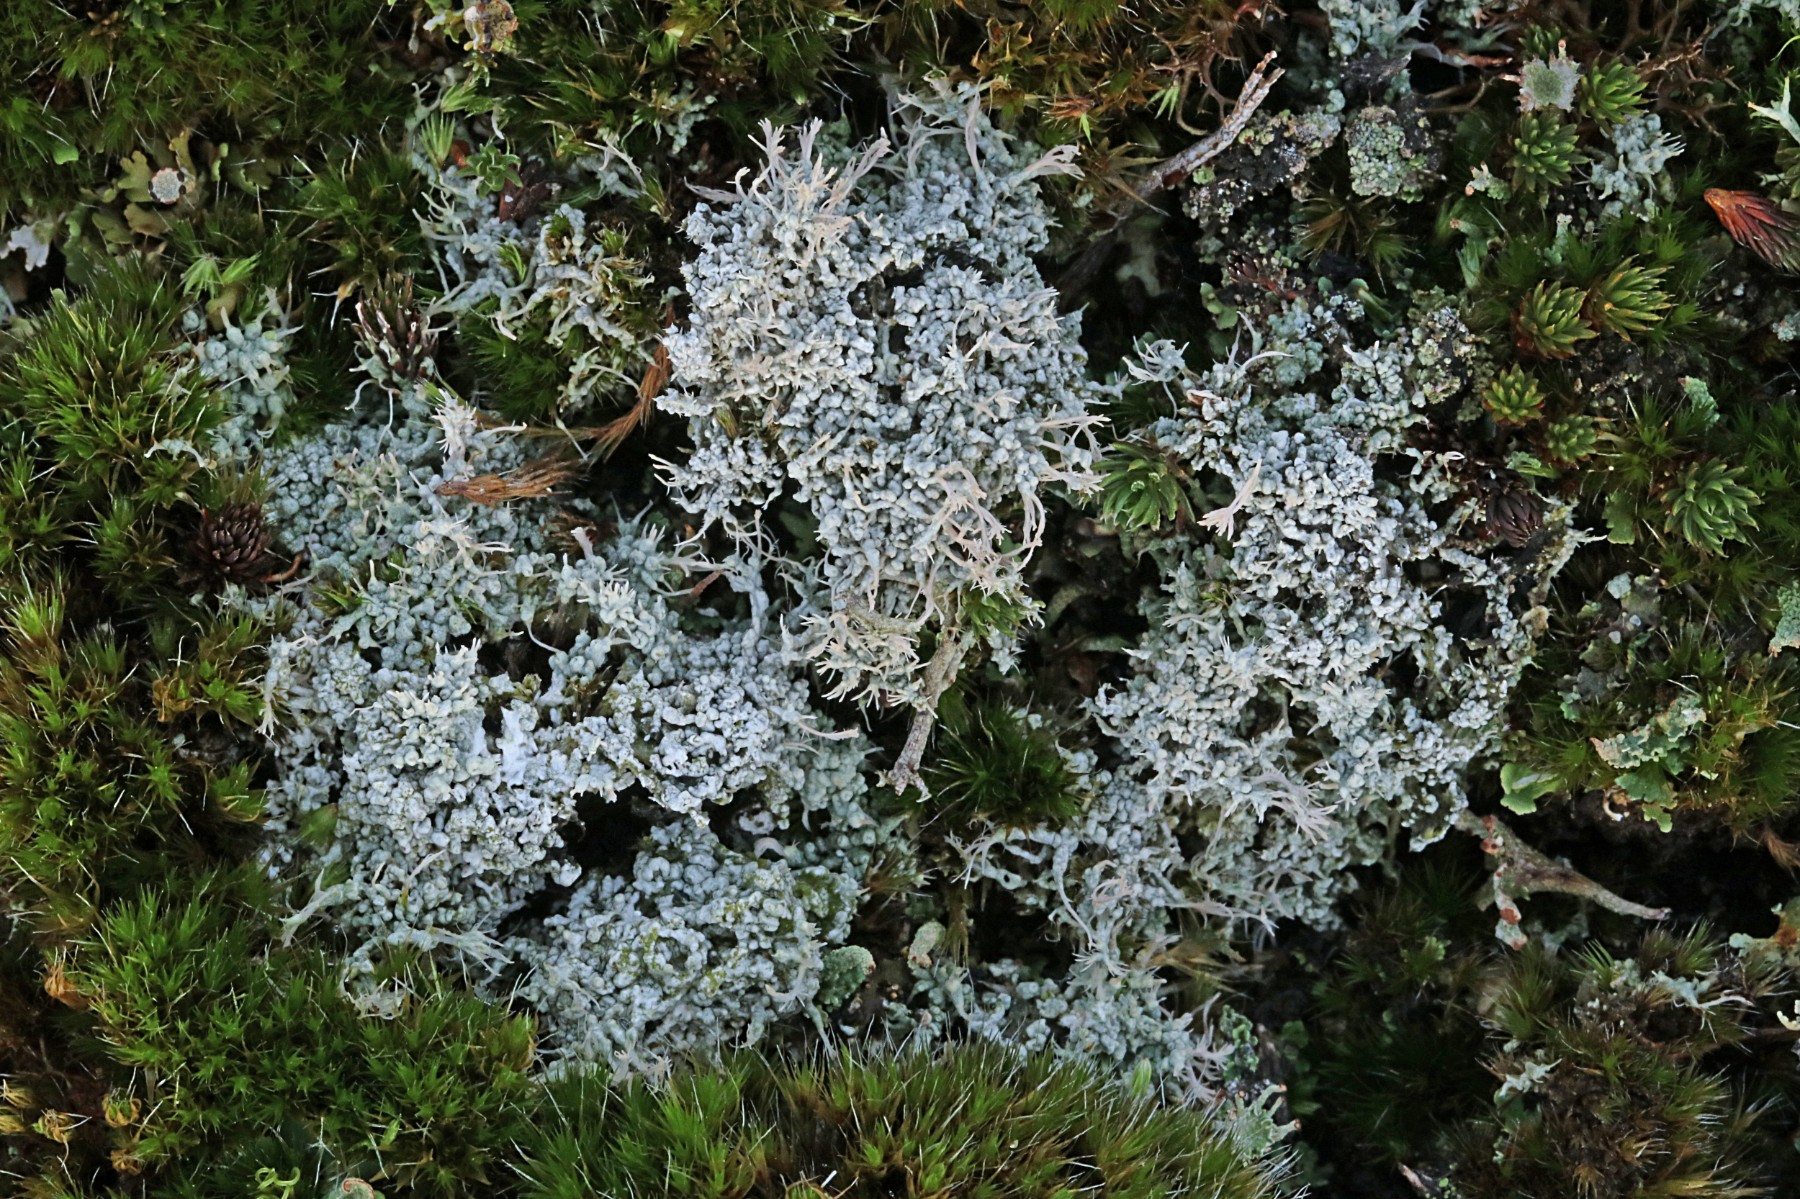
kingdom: Fungi
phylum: Ascomycota
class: Lecanoromycetes
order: Pertusariales
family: Ochrolechiaceae
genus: Ochrolechia
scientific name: Ochrolechia frigida
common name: fjeld-blegskivelav
